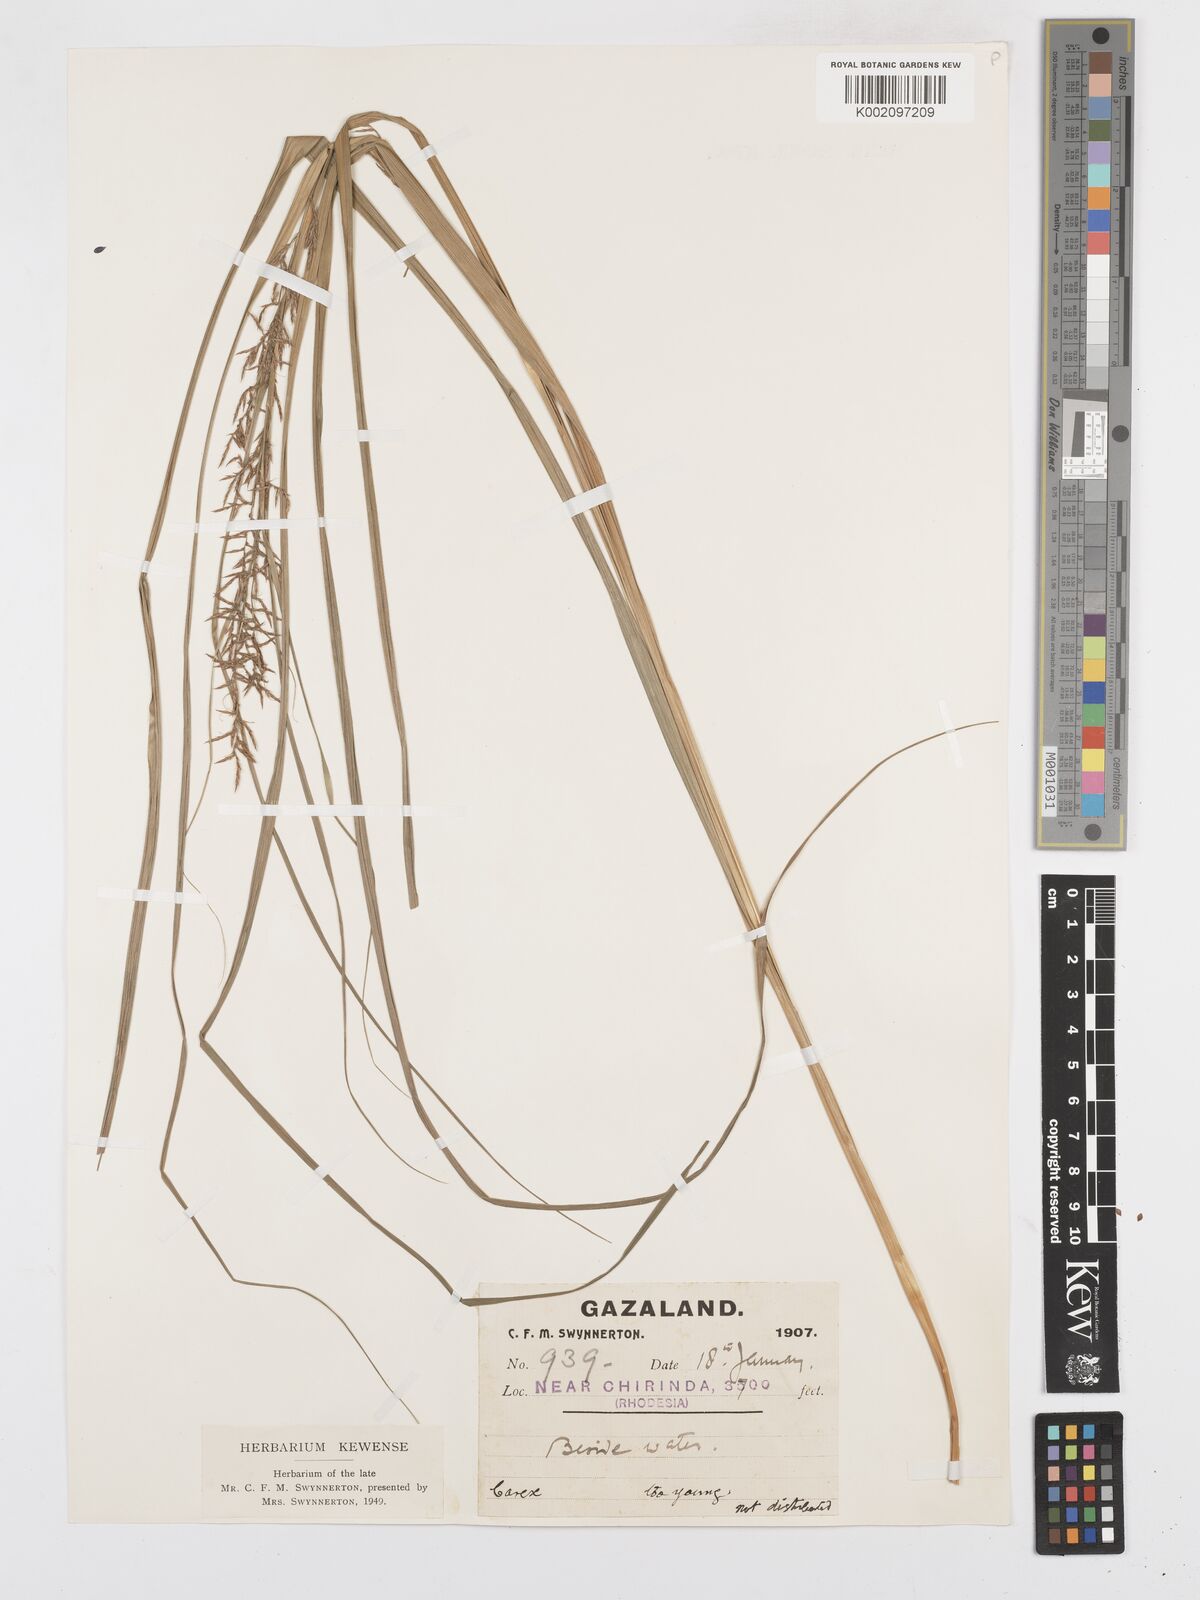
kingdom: Plantae
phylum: Tracheophyta
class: Liliopsida
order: Poales
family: Cyperaceae
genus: Carex
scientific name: Carex
